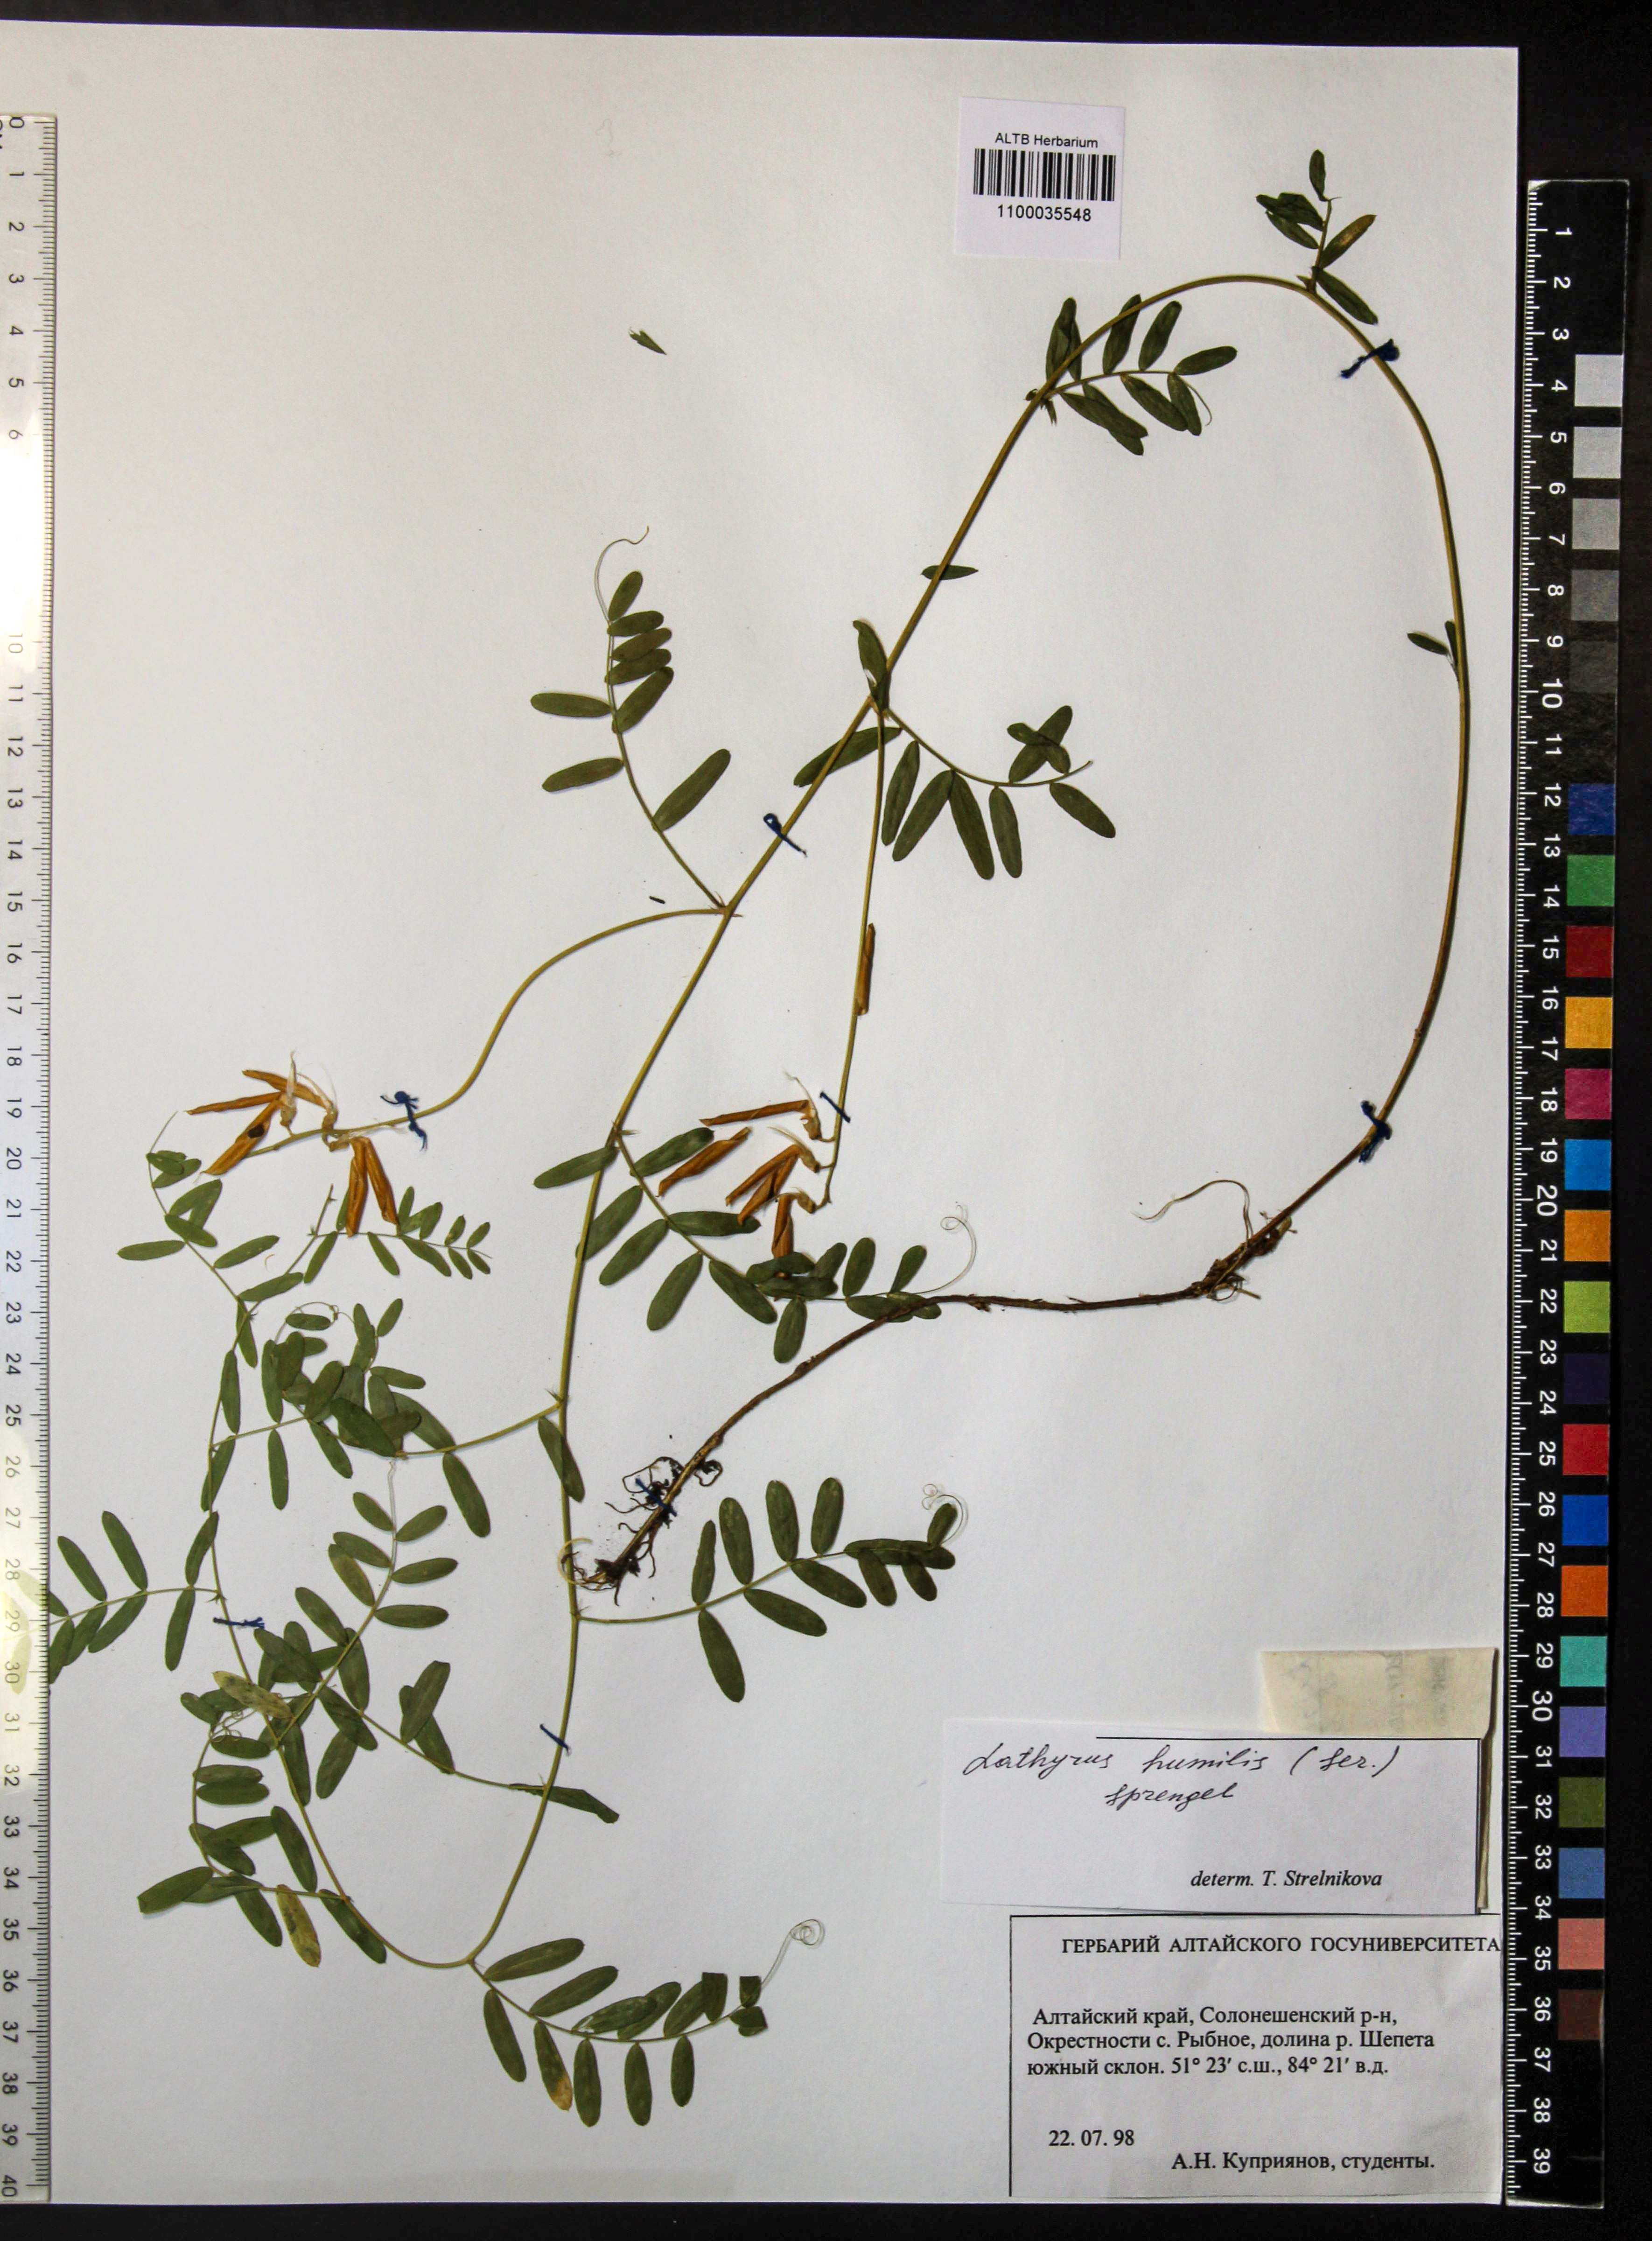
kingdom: Plantae
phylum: Tracheophyta
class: Magnoliopsida
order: Fabales
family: Fabaceae
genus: Lathyrus
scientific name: Lathyrus humilis
